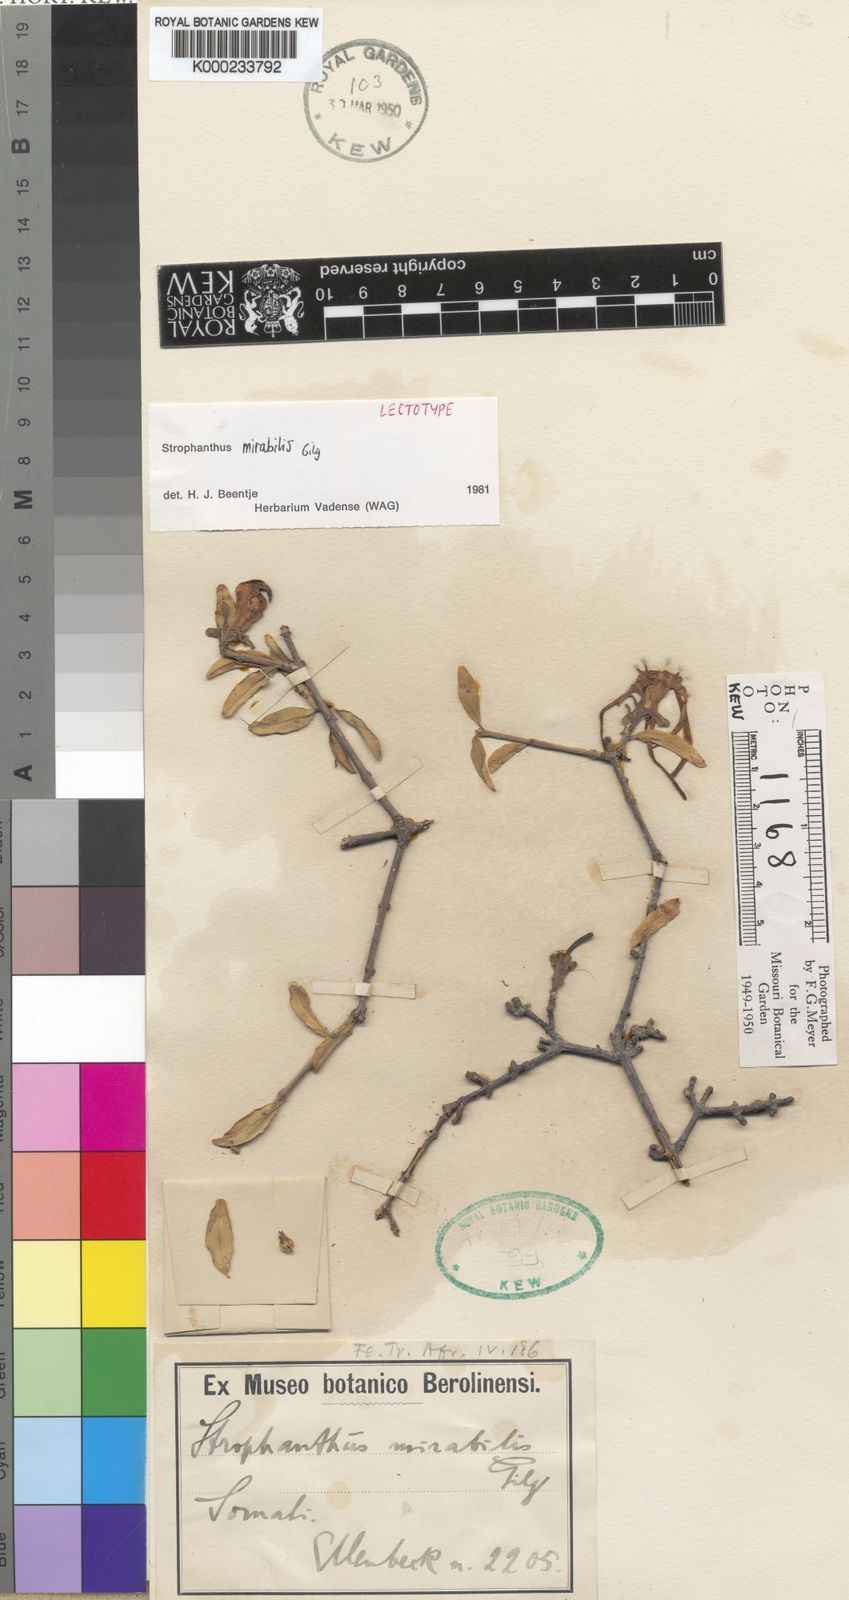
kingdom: Plantae
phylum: Tracheophyta
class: Magnoliopsida
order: Gentianales
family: Apocynaceae
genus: Strophanthus
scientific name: Strophanthus mirabilis
